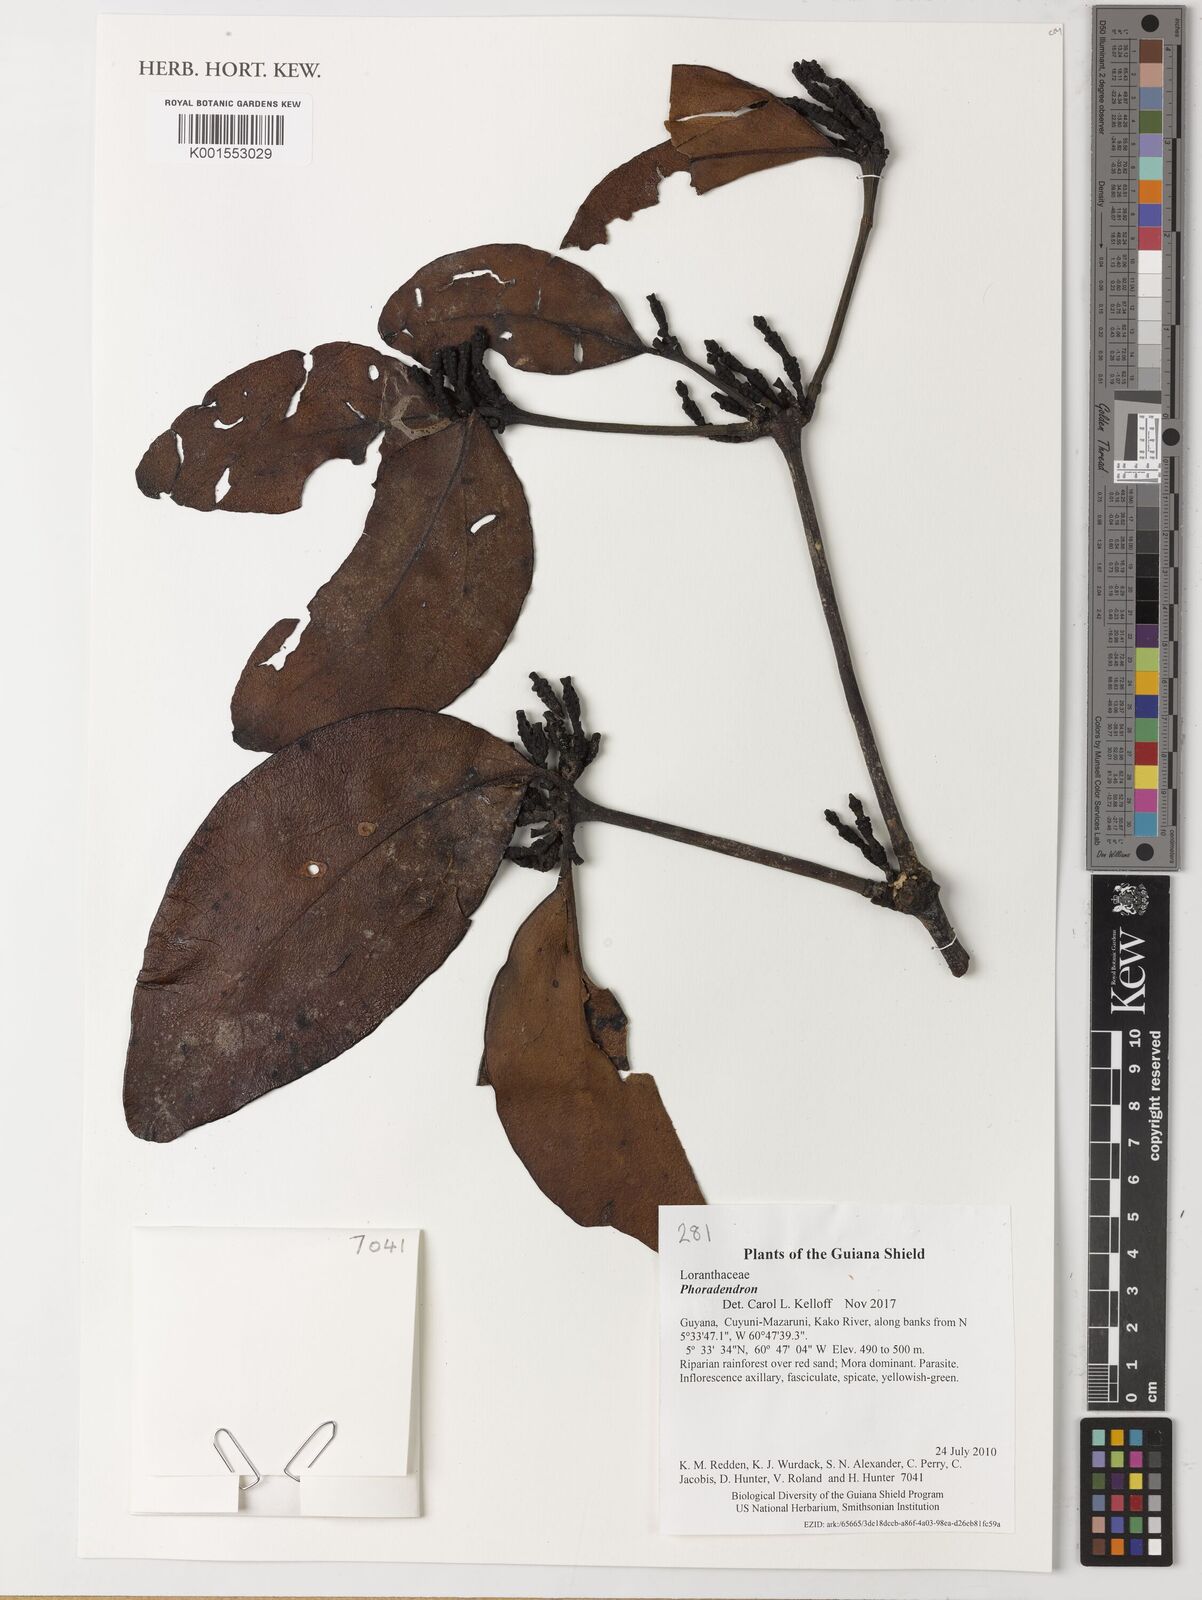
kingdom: Plantae
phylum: Tracheophyta
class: Magnoliopsida
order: Santalales
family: Loranthaceae
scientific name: Loranthaceae
